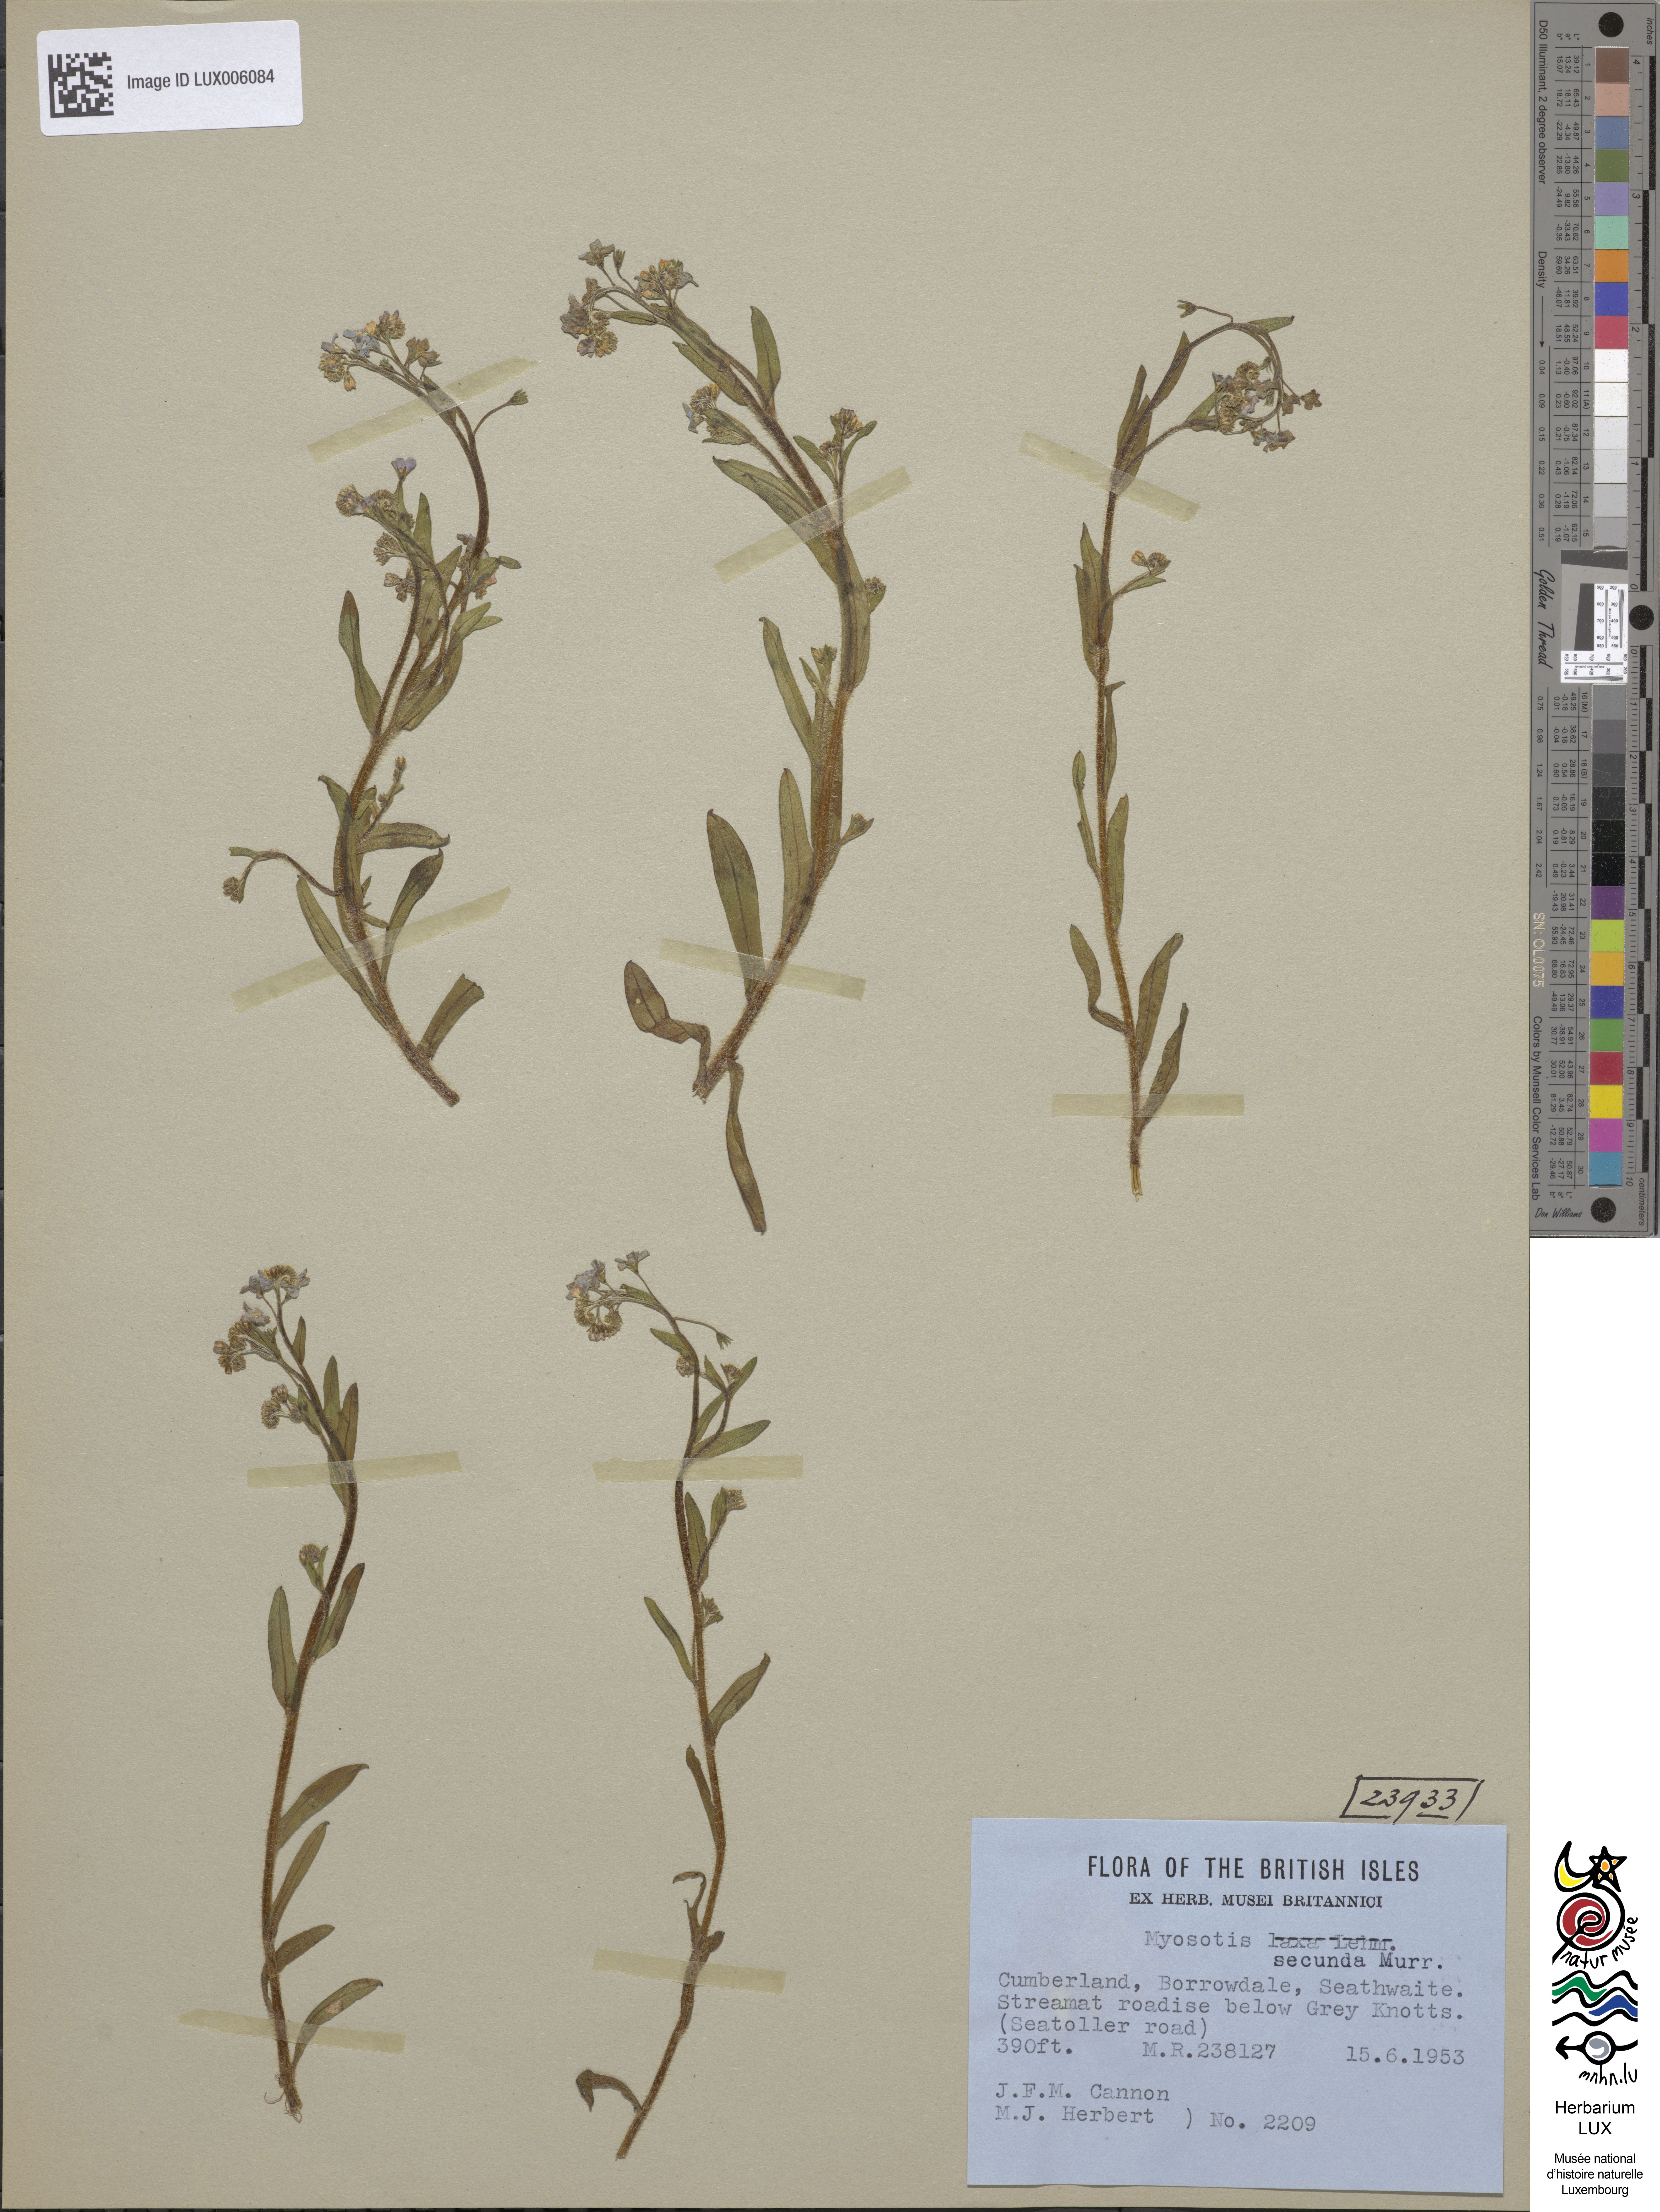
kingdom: Plantae
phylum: Tracheophyta
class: Magnoliopsida
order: Boraginales
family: Boraginaceae
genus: Myosotis
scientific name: Myosotis secunda
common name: Creeping forget-me-not
